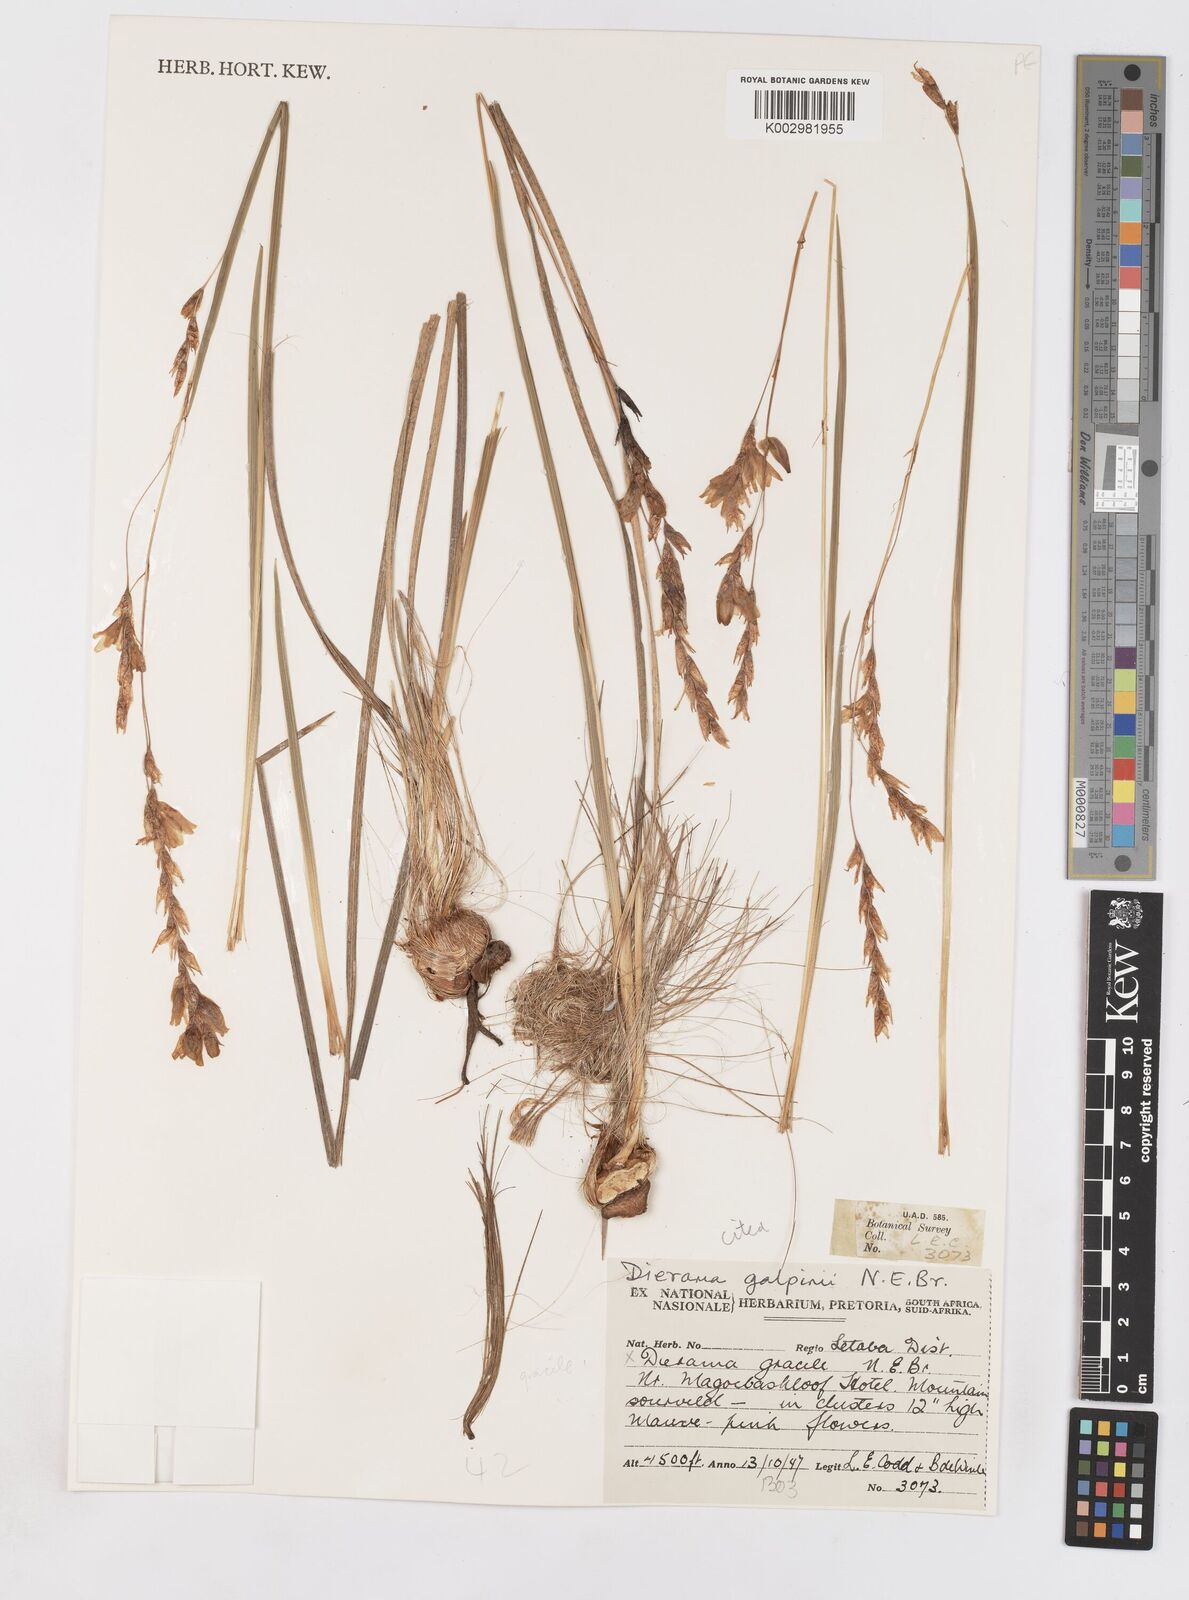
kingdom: Plantae
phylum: Tracheophyta
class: Liliopsida
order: Asparagales
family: Iridaceae
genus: Dierama
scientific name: Dierama gracile
